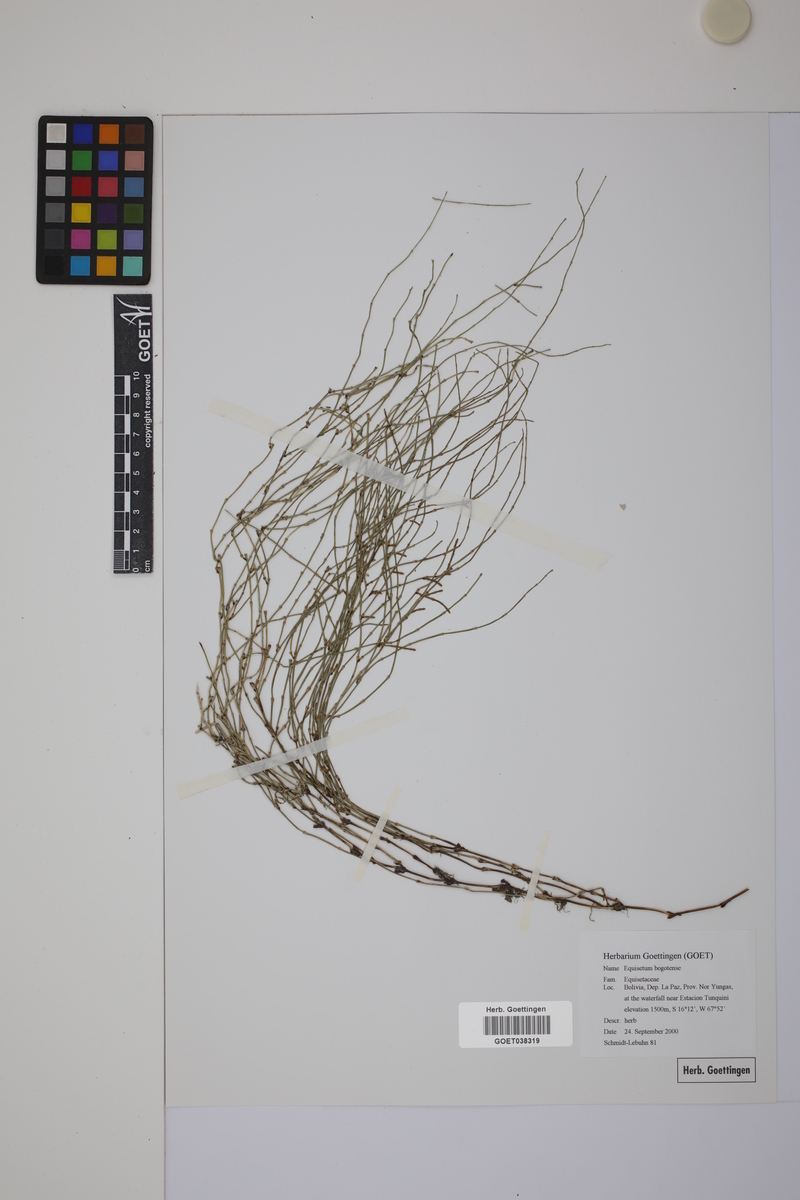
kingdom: Plantae
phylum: Tracheophyta
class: Polypodiopsida
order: Equisetales
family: Equisetaceae
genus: Equisetum
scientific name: Equisetum bogotense
